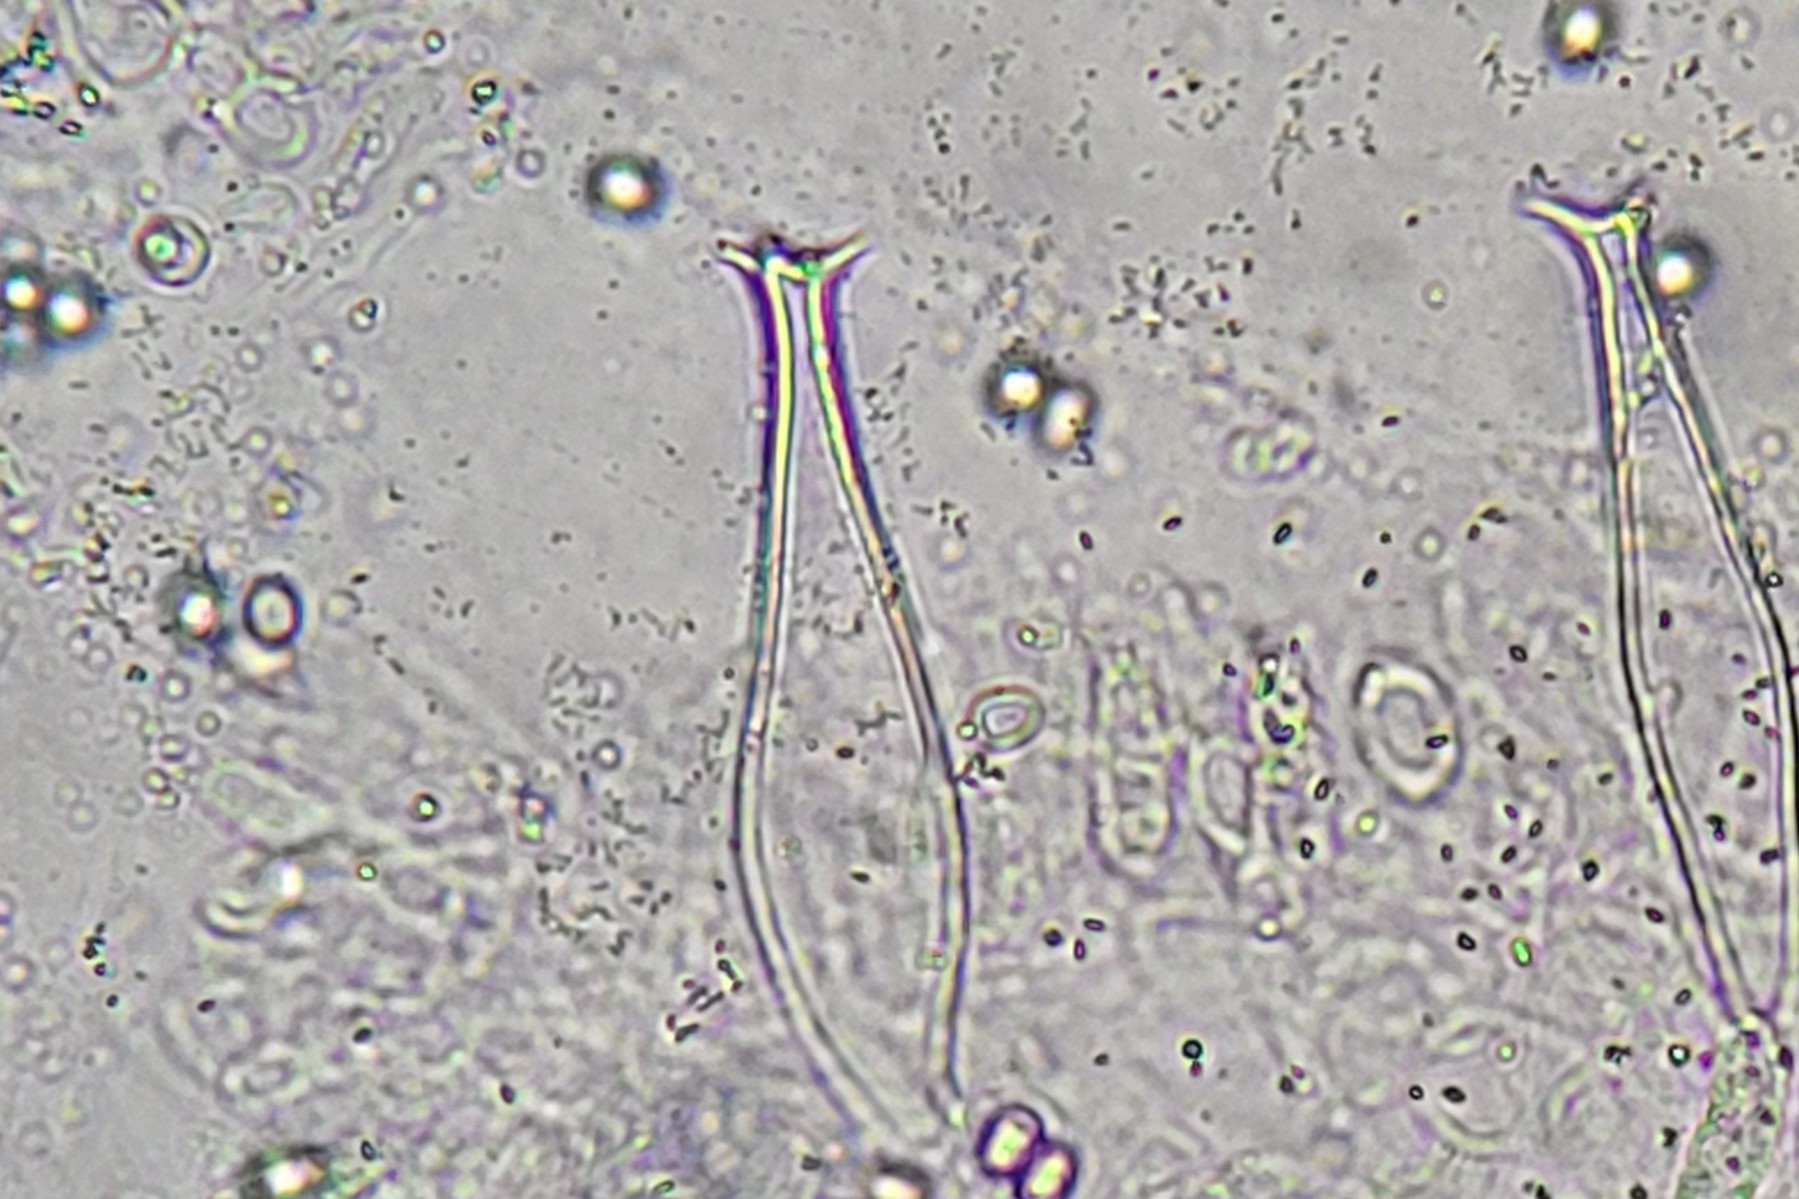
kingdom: Fungi
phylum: Basidiomycota
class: Agaricomycetes
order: Agaricales
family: Pluteaceae
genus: Pluteus
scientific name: Pluteus cervinus
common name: sodfarvet skærmhat
